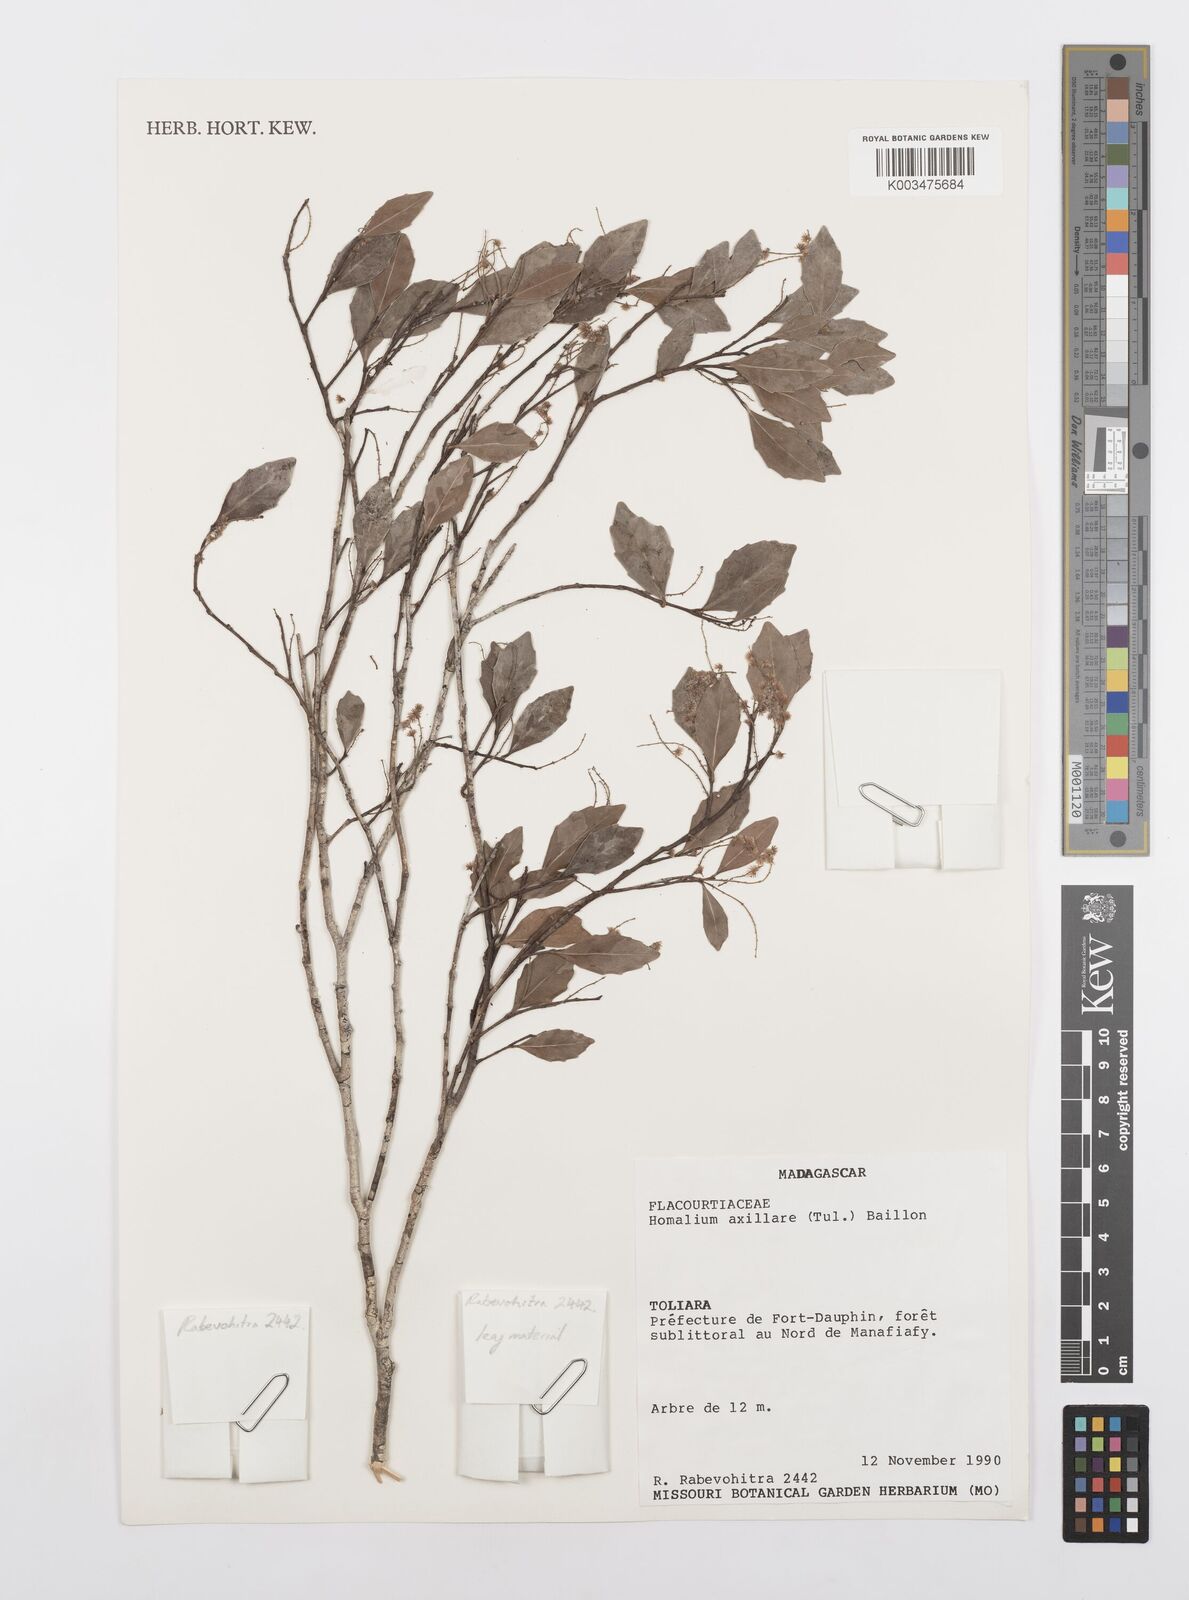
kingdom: Plantae
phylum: Tracheophyta
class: Magnoliopsida
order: Malpighiales
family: Salicaceae
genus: Homalium
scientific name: Homalium axillare
